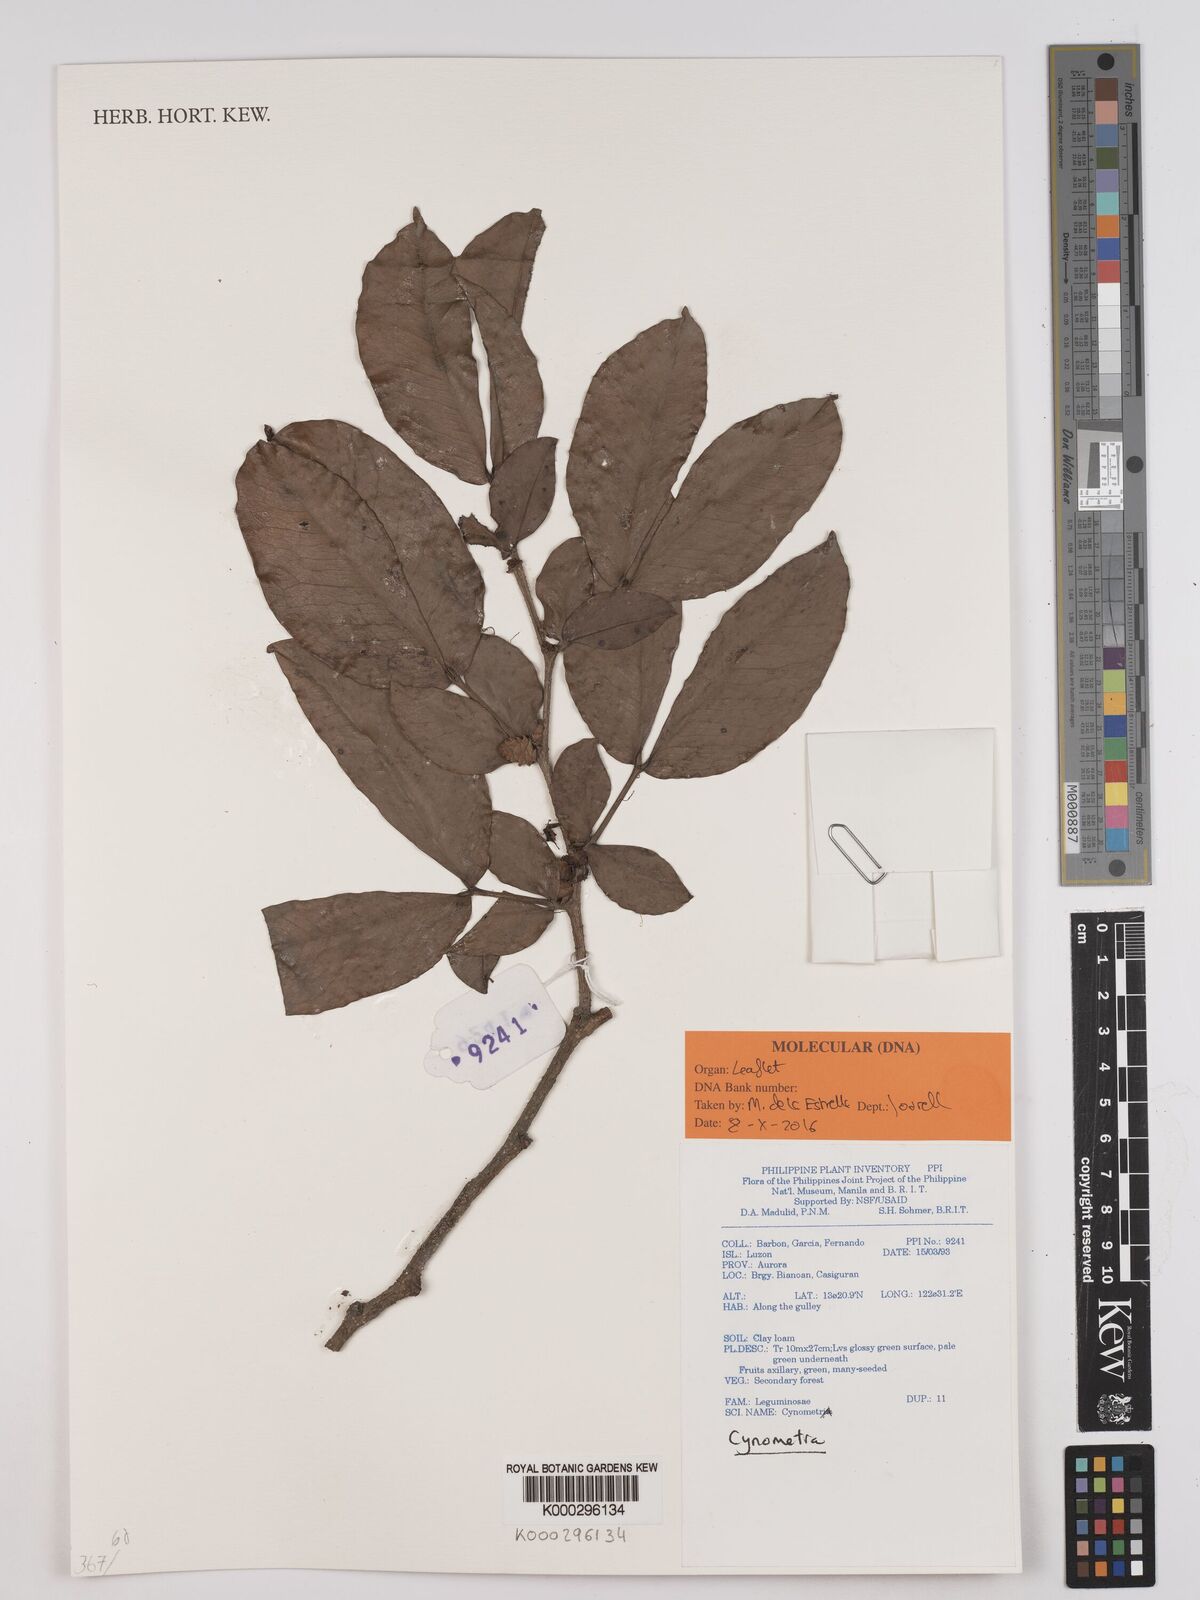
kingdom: Plantae
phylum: Tracheophyta
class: Magnoliopsida
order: Fabales
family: Fabaceae
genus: Cynometra
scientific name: Cynometra
